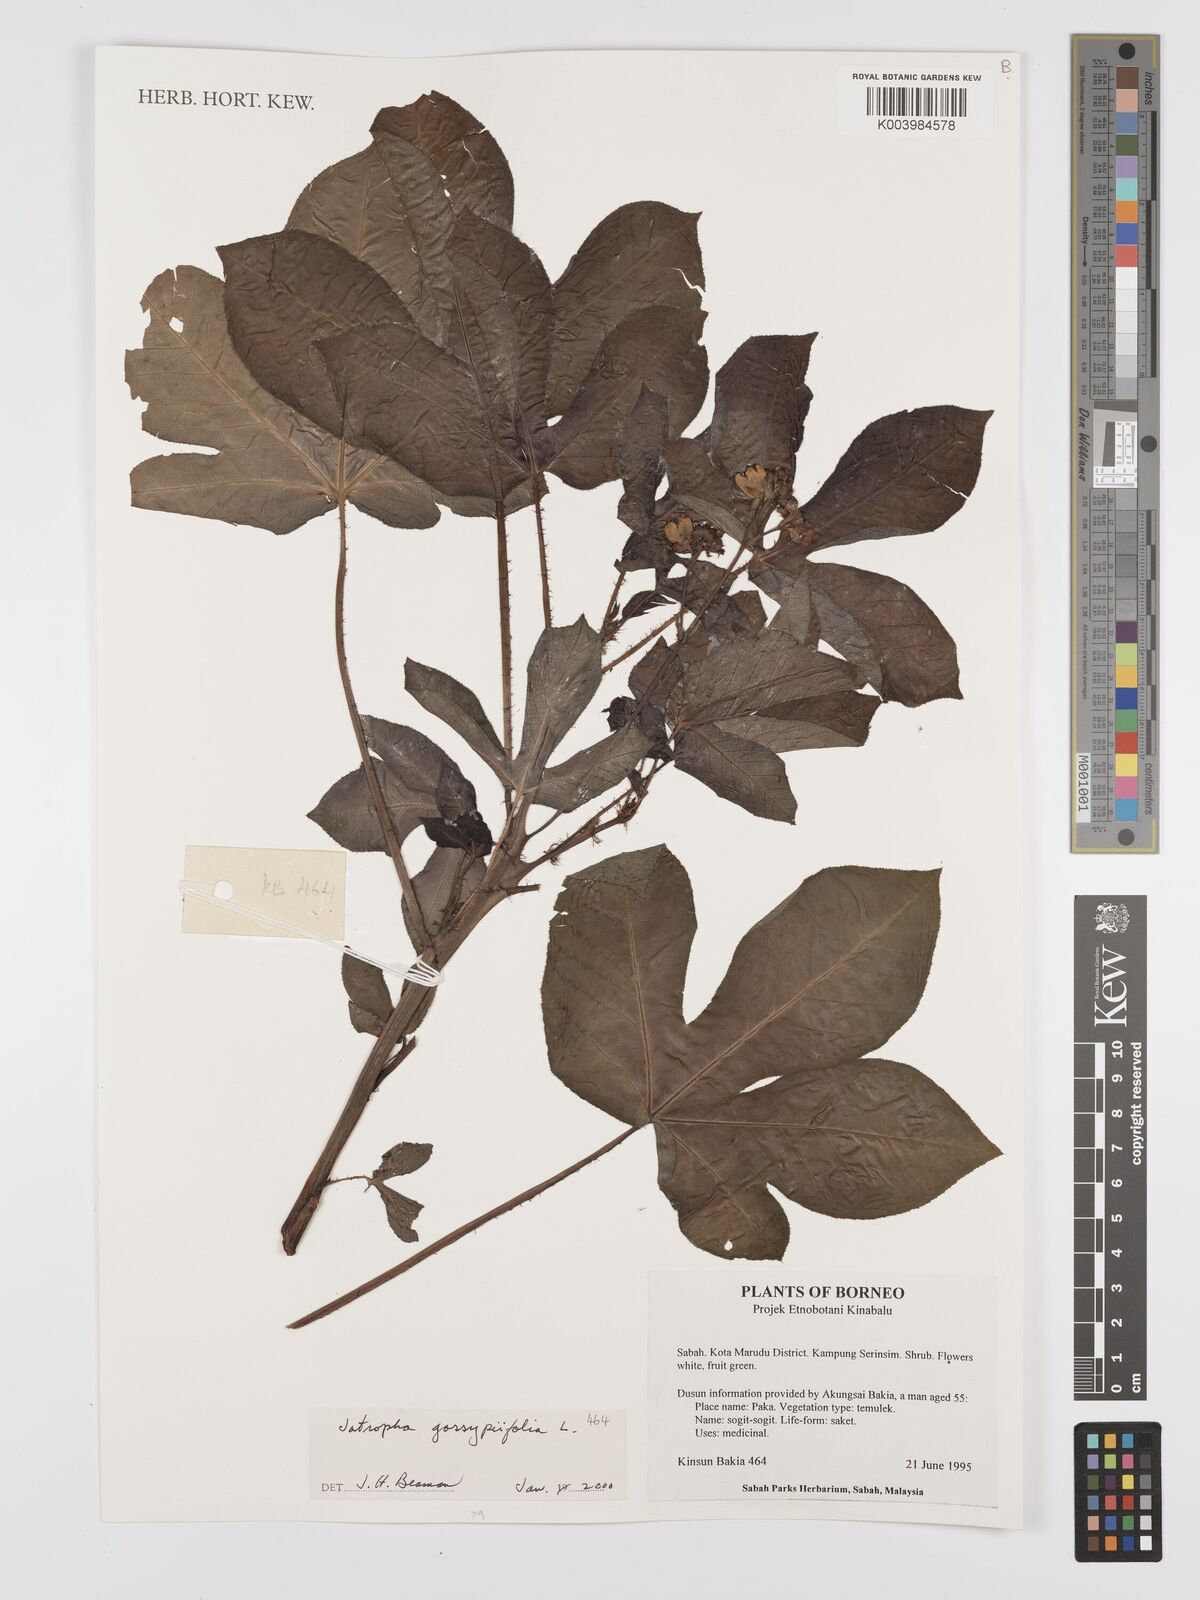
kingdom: Plantae
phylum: Tracheophyta
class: Magnoliopsida
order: Malpighiales
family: Euphorbiaceae
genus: Jatropha
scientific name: Jatropha gossypiifolia
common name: Bellyache bush
